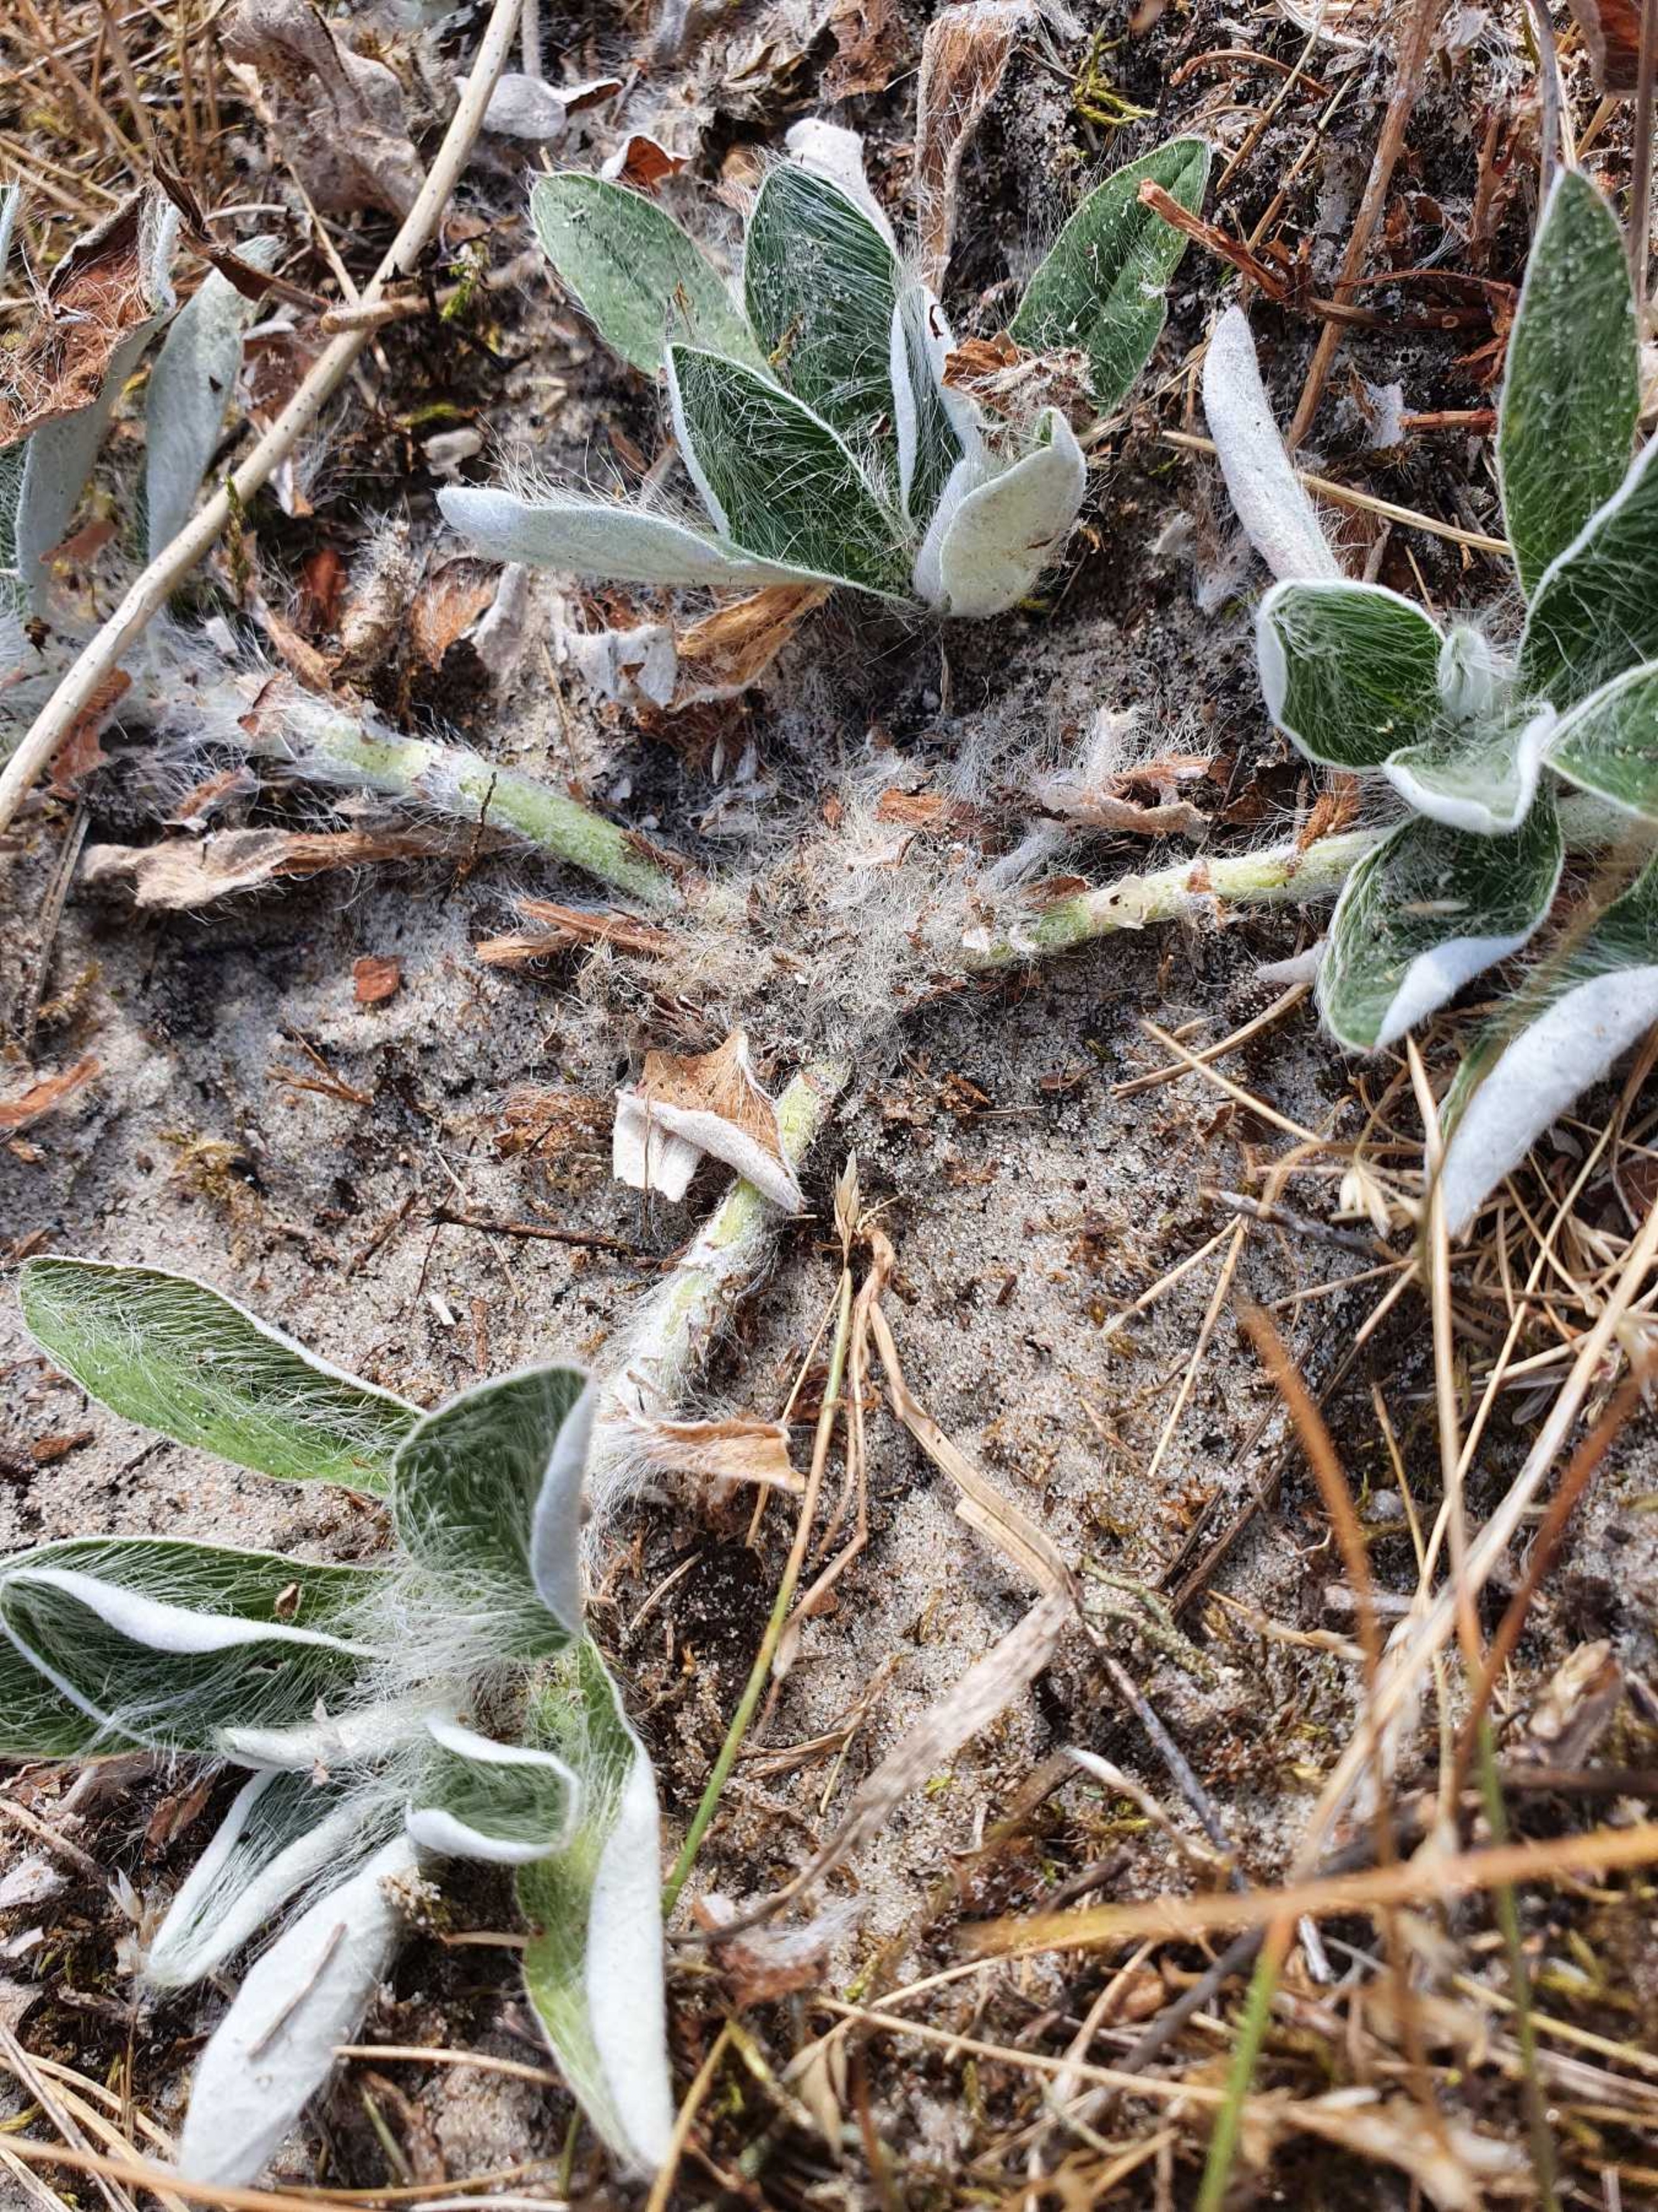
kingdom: Plantae
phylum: Tracheophyta
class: Magnoliopsida
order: Asterales
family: Asteraceae
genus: Pilosella
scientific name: Pilosella peleteriana
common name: Klit-høgeurt
